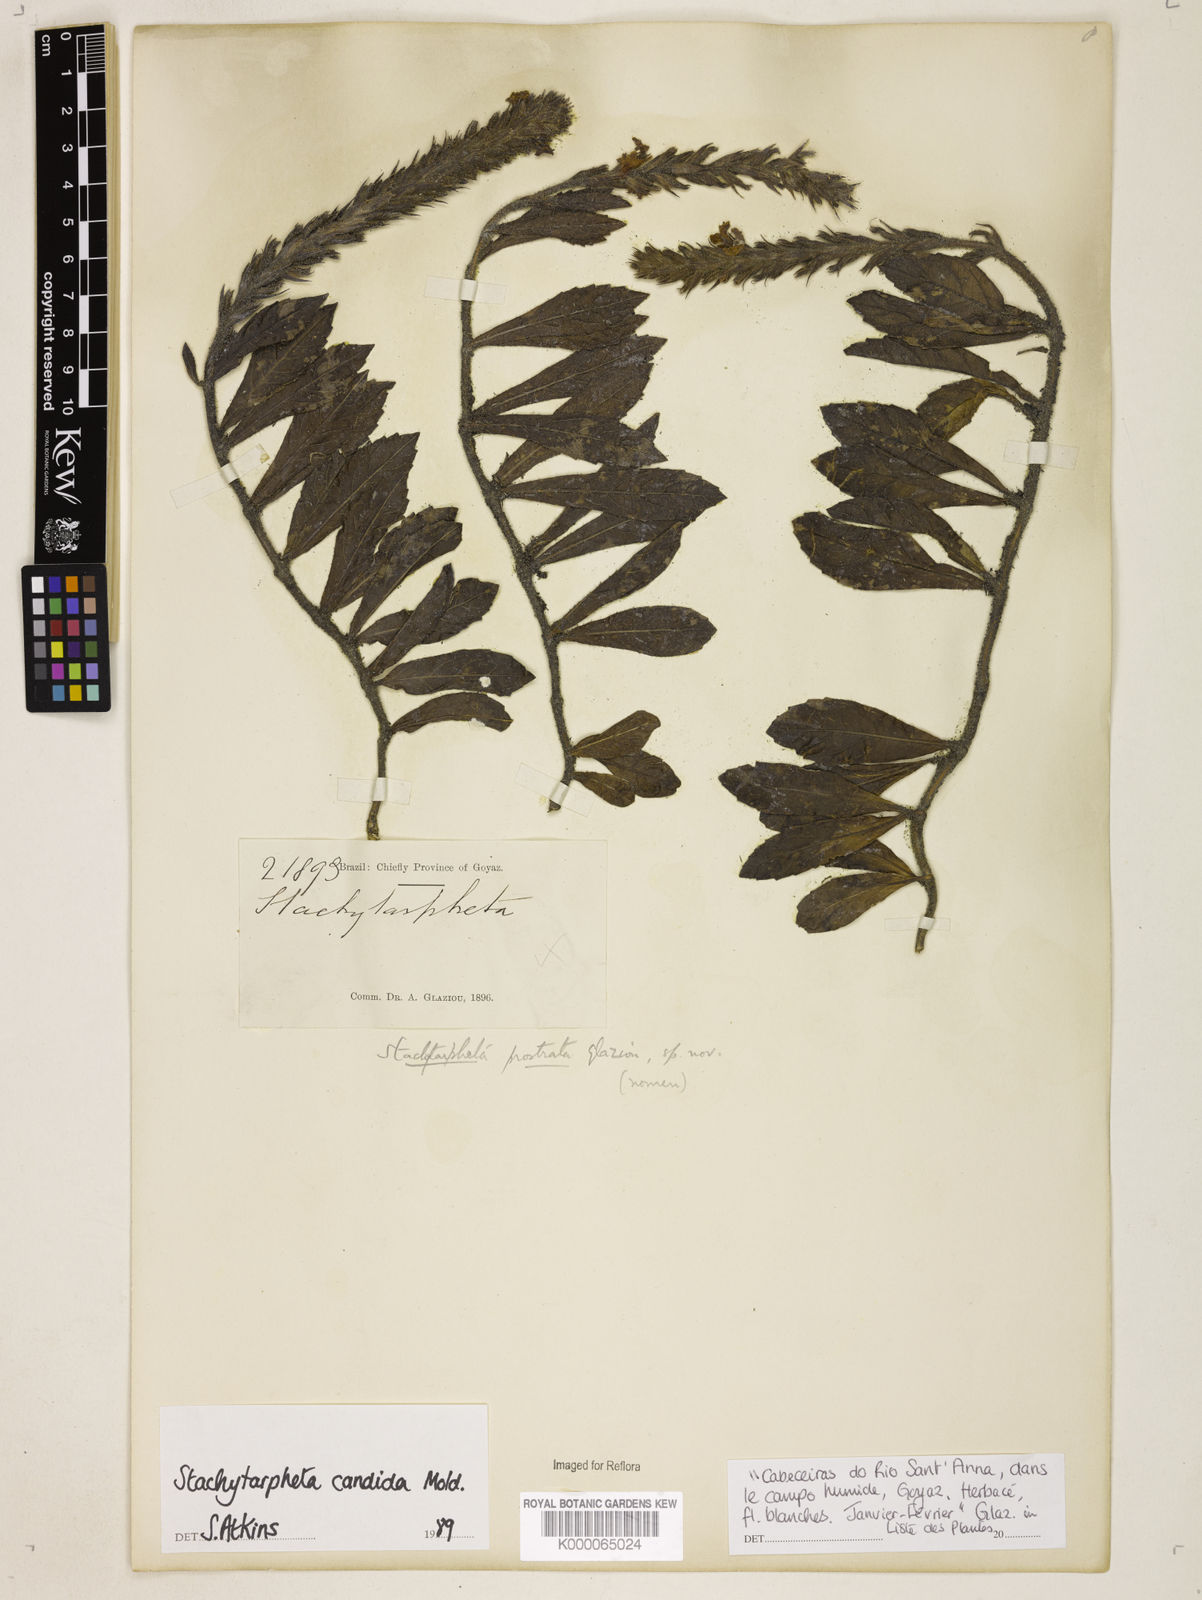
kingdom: Plantae
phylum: Tracheophyta
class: Magnoliopsida
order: Lamiales
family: Verbenaceae
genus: Stachytarpheta
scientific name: Stachytarpheta candida
